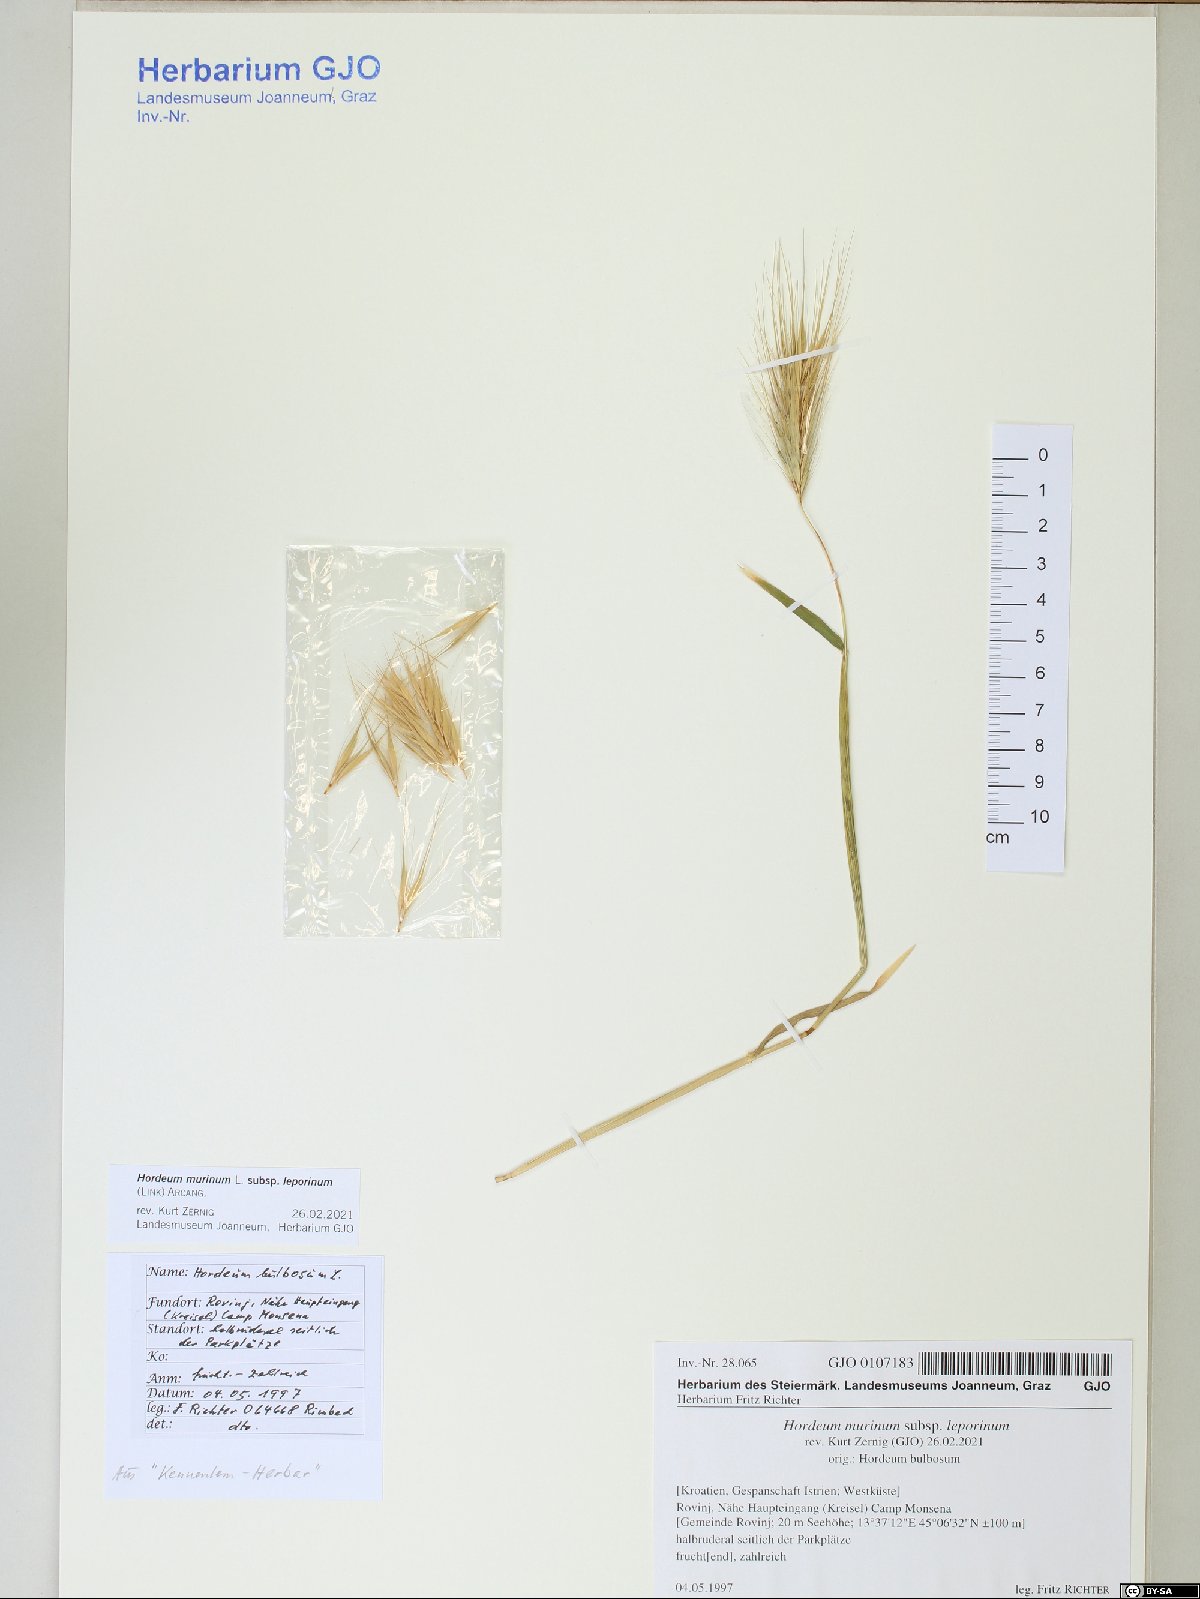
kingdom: Plantae
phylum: Tracheophyta
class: Liliopsida
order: Poales
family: Poaceae
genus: Hordeum
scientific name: Hordeum murinum
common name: Wall barley
